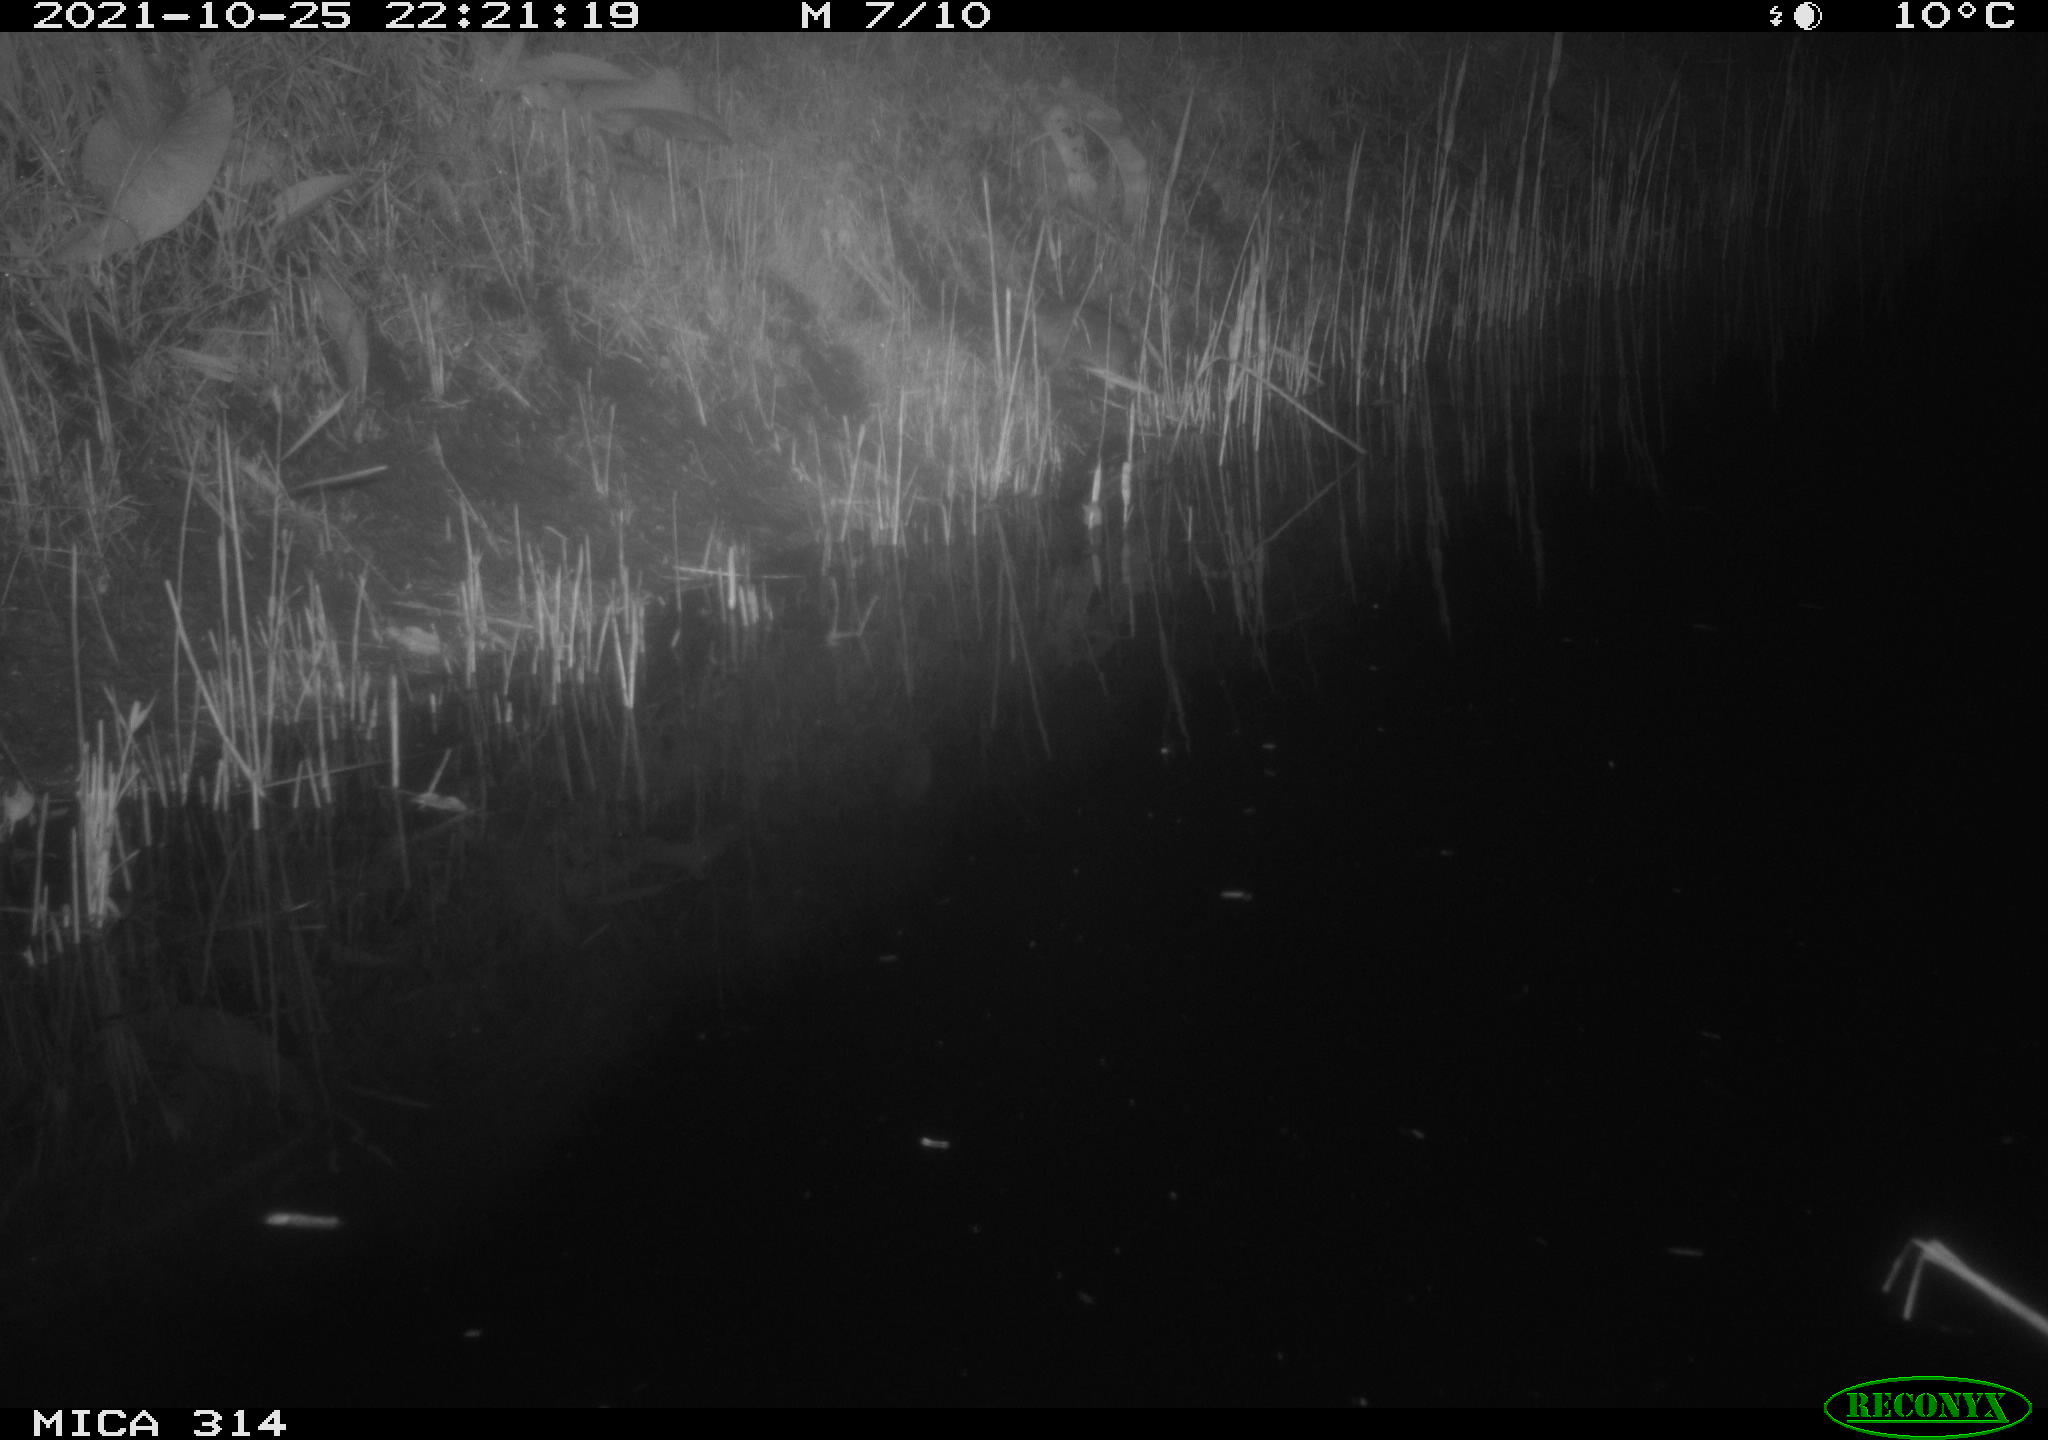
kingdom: Animalia
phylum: Chordata
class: Mammalia
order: Rodentia
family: Muridae
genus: Rattus
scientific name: Rattus norvegicus
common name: Brown rat
